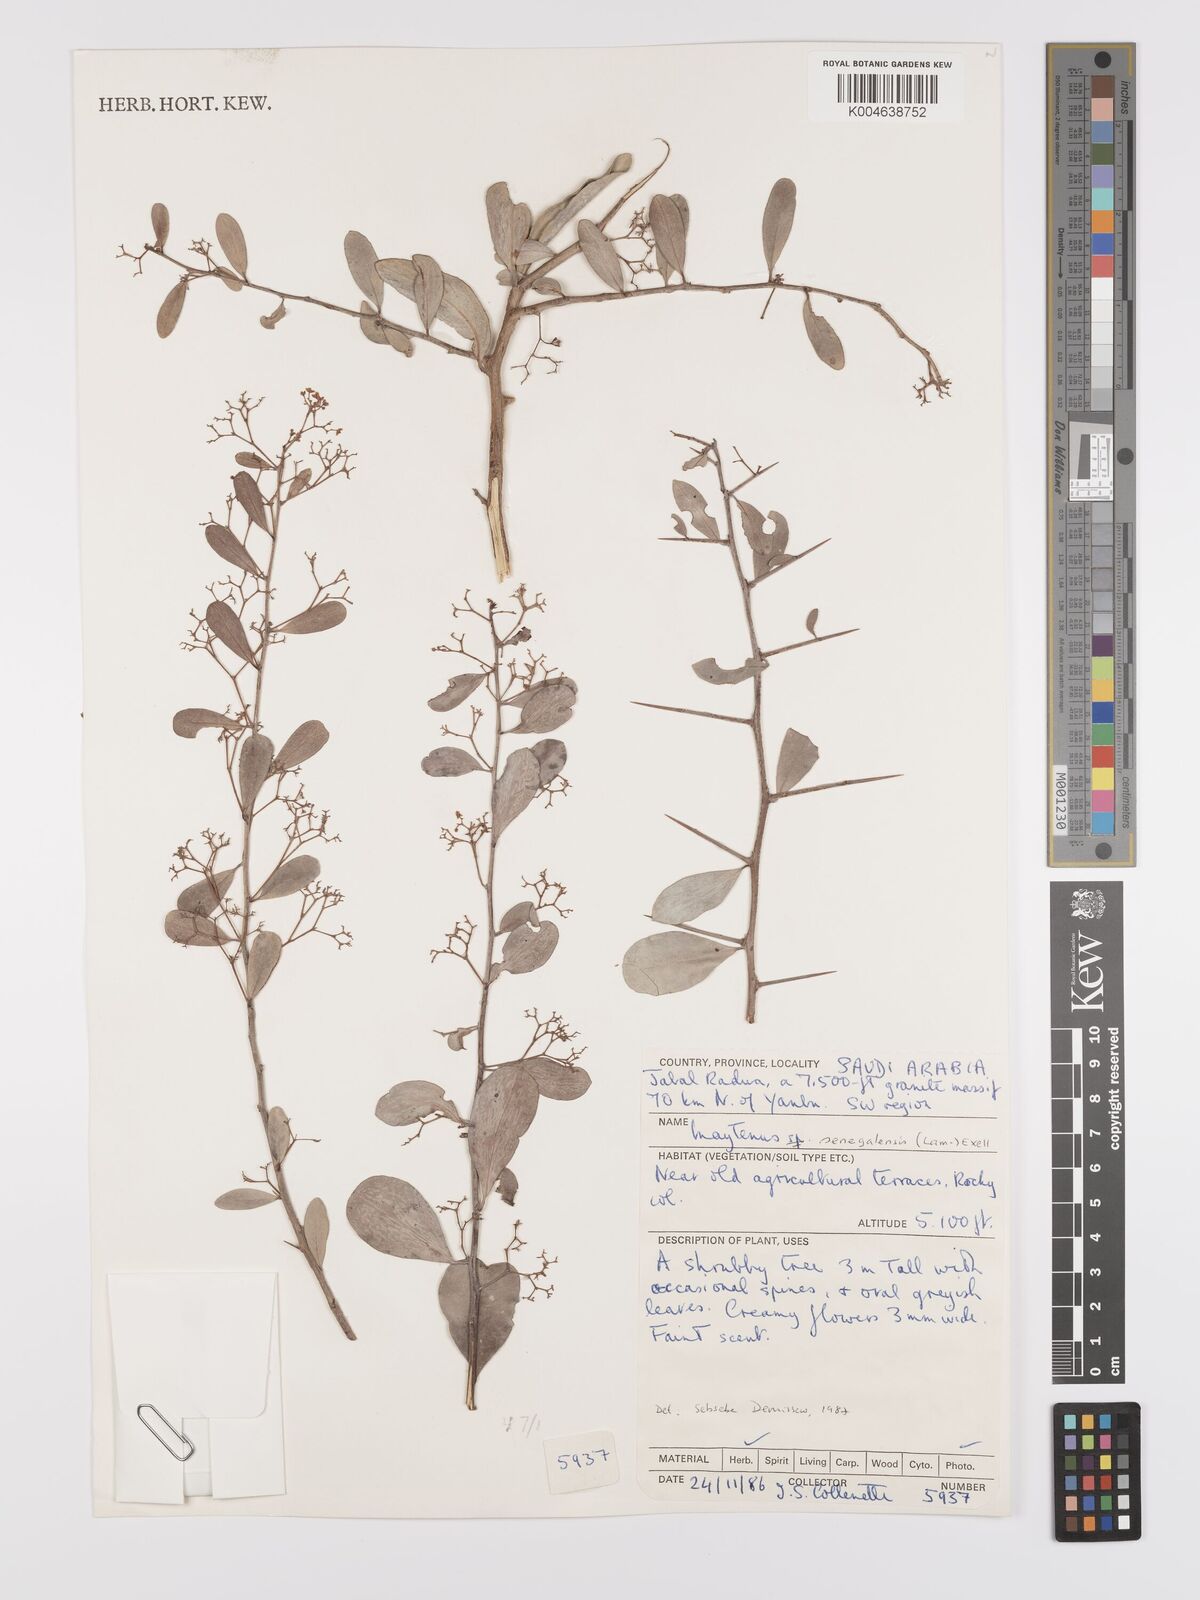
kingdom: Plantae
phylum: Tracheophyta
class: Magnoliopsida
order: Celastrales
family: Celastraceae
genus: Gymnosporia
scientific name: Gymnosporia senegalensis
